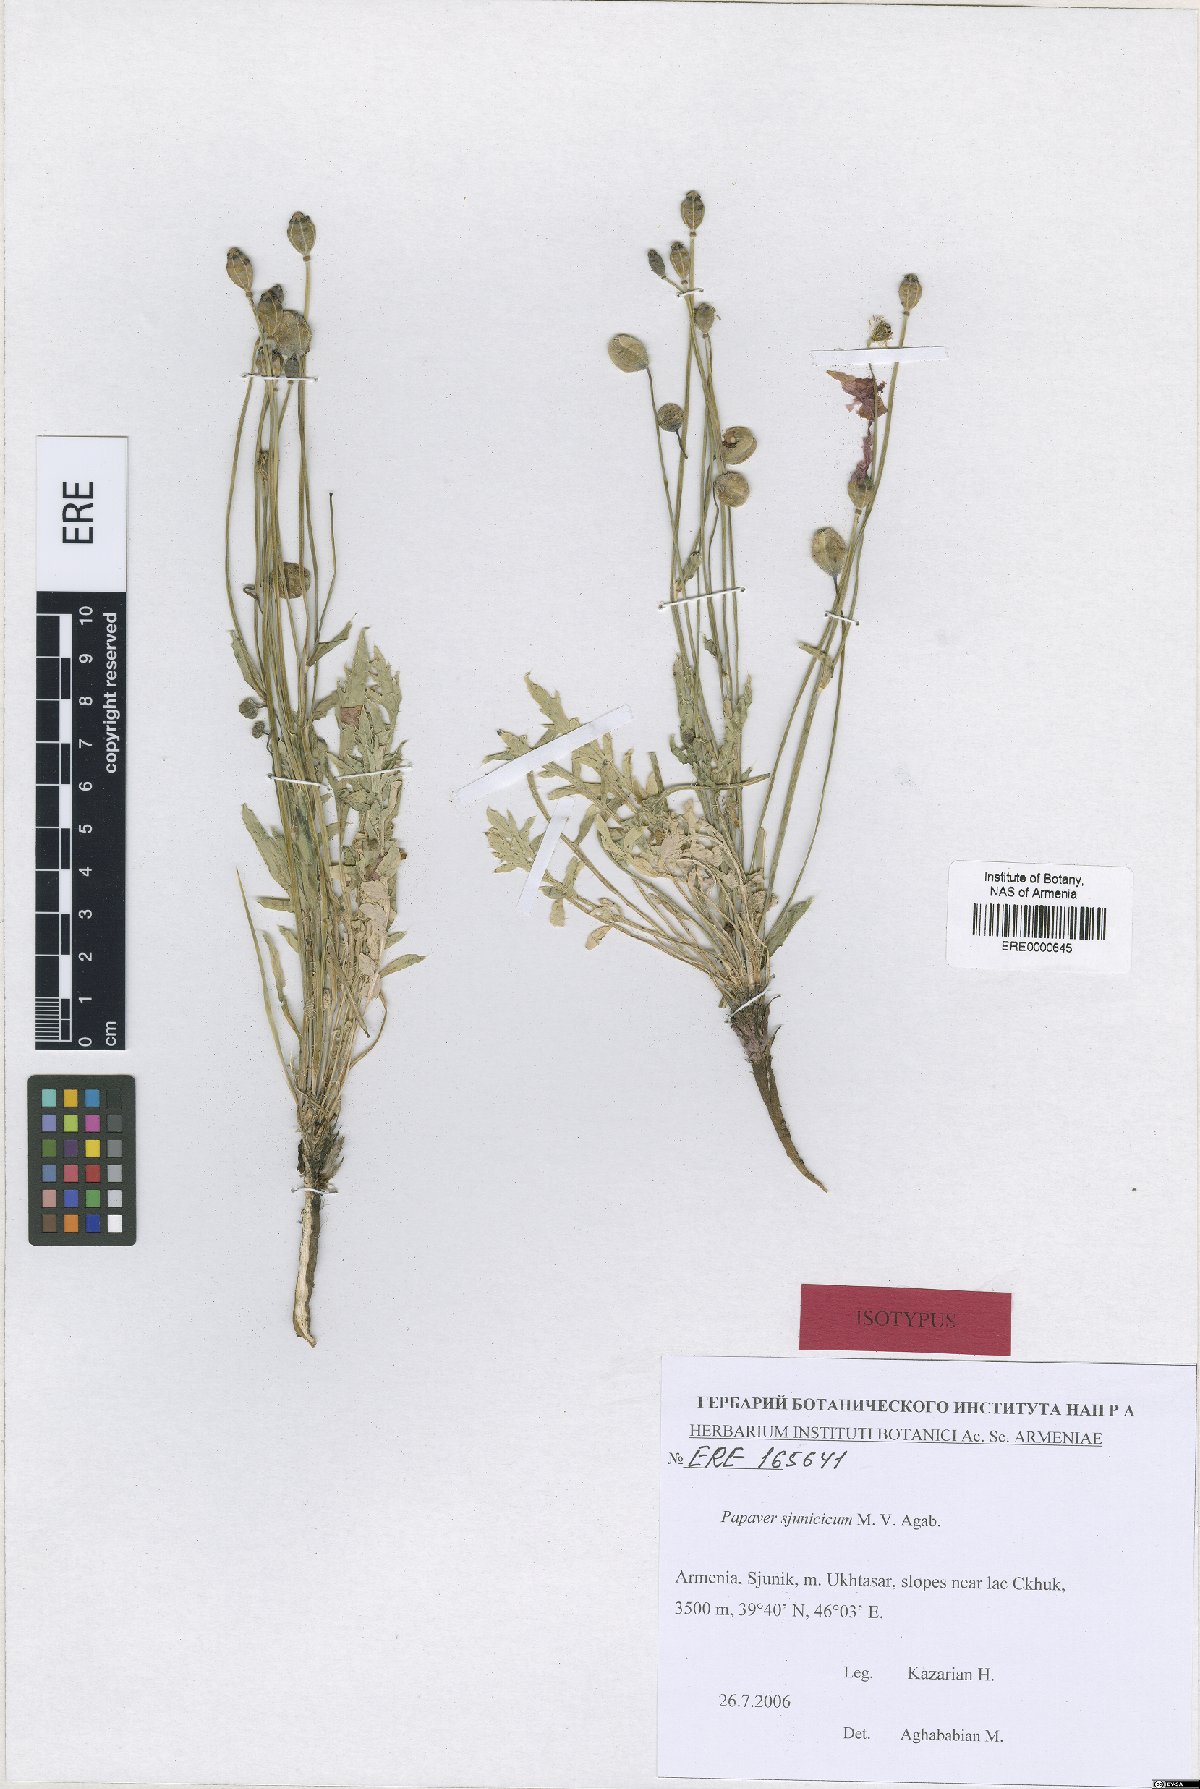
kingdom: Plantae
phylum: Tracheophyta
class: Magnoliopsida
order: Ranunculales
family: Papaveraceae
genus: Papaver
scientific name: Papaver armeniacum
